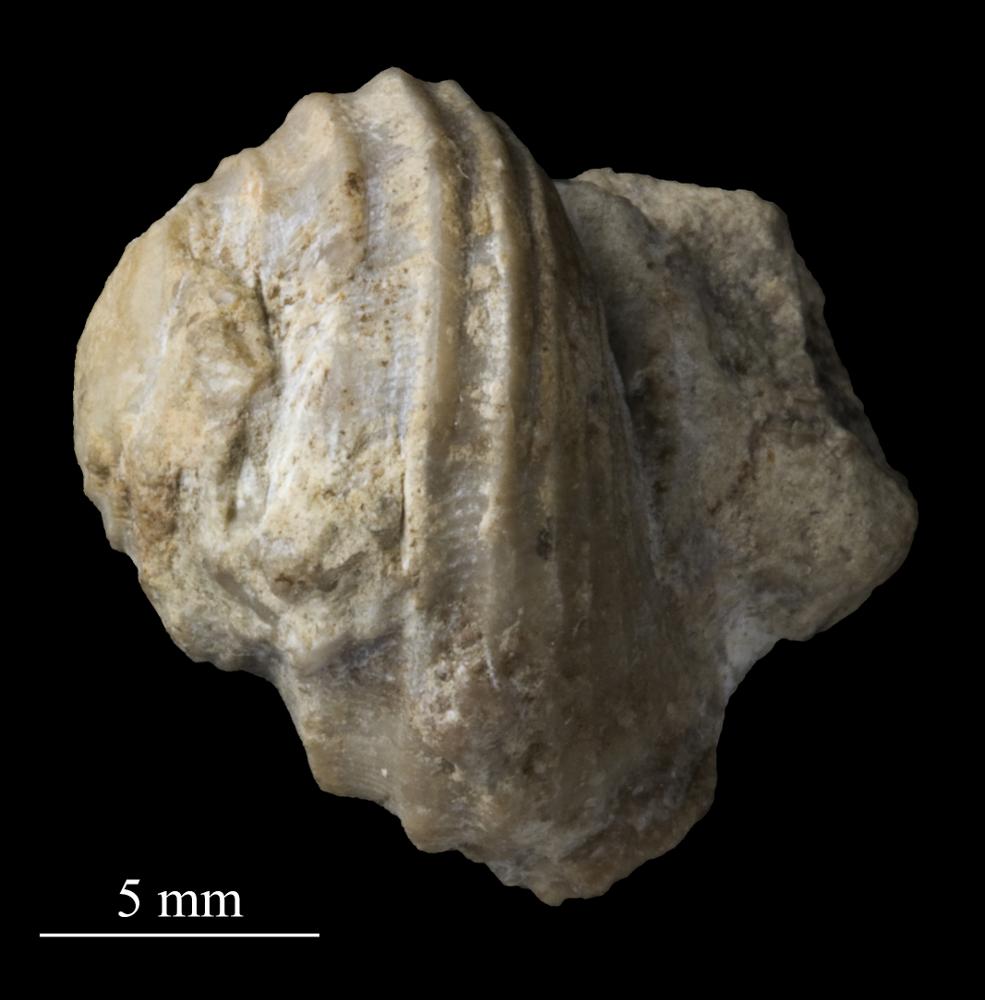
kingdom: Animalia
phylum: Mollusca
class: Gastropoda
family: Platyceratidae
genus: Cyclonema
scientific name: Cyclonema Turbo rupestre
